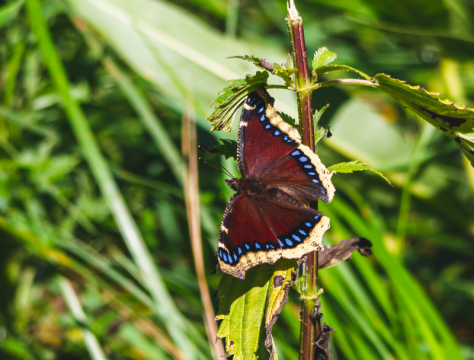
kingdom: Animalia
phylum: Arthropoda
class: Insecta
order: Lepidoptera
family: Nymphalidae
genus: Nymphalis
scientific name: Nymphalis antiopa
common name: Mourning Cloak
